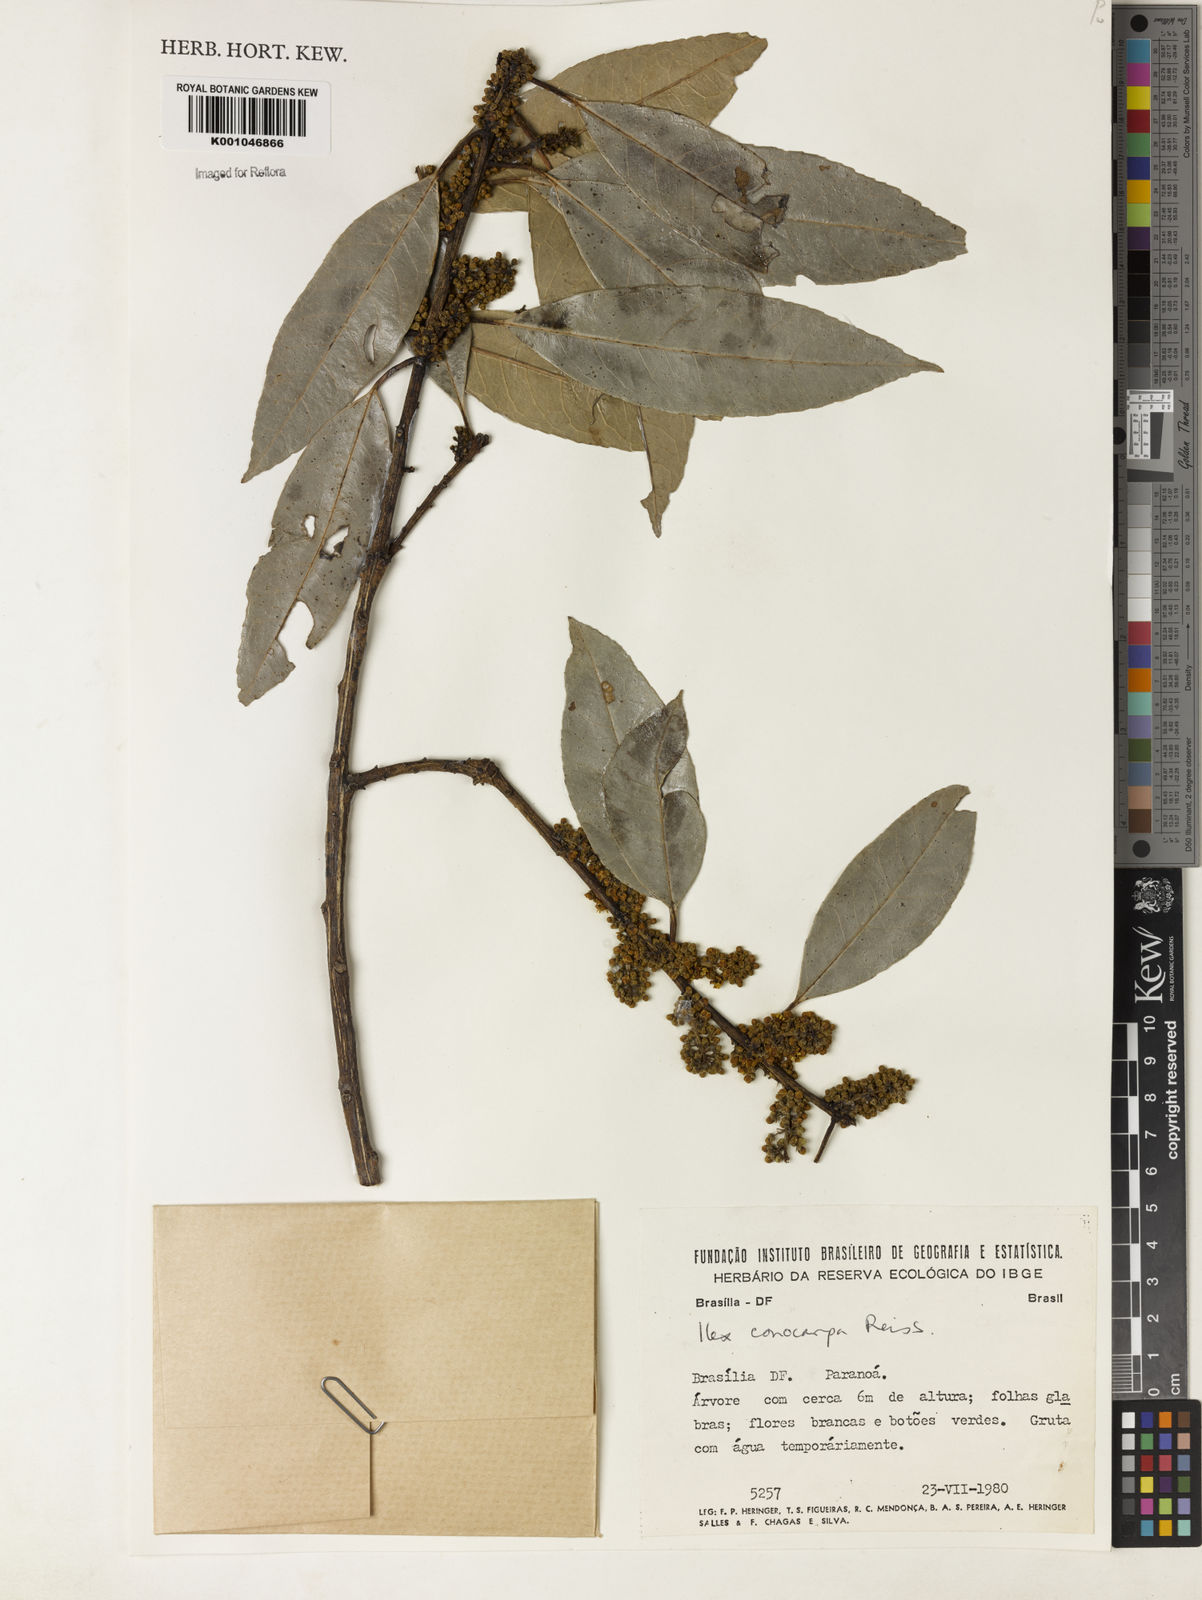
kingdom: Plantae
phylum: Tracheophyta
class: Magnoliopsida
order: Aquifoliales
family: Aquifoliaceae
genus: Ilex
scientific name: Ilex conocarpa
